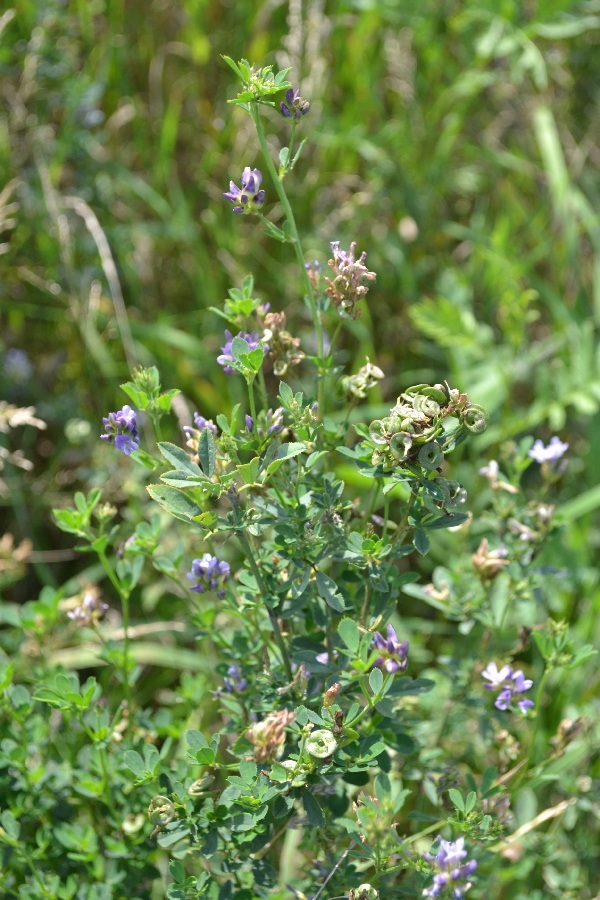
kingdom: Plantae
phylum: Tracheophyta
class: Magnoliopsida
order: Fabales
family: Fabaceae
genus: Medicago
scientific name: Medicago sativa
